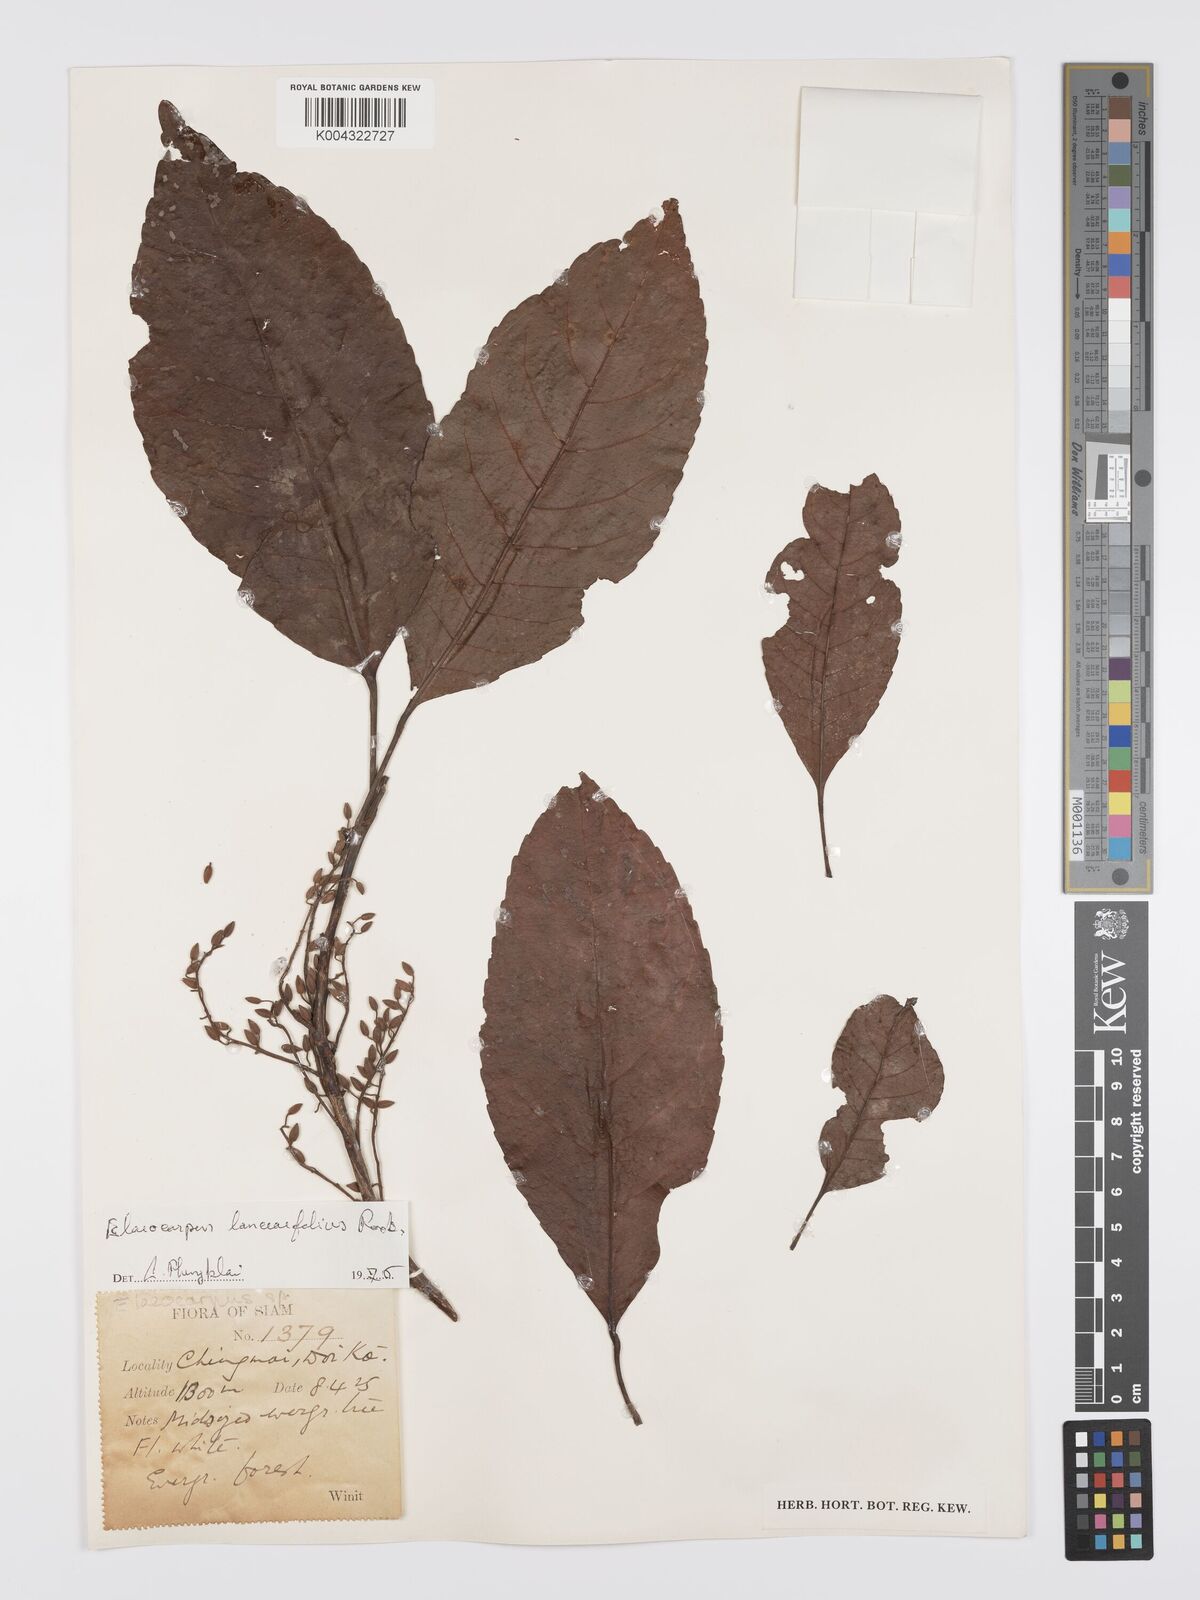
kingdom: Plantae
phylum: Tracheophyta
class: Magnoliopsida
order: Oxalidales
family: Elaeocarpaceae
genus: Elaeocarpus
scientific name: Elaeocarpus lanceifolius
